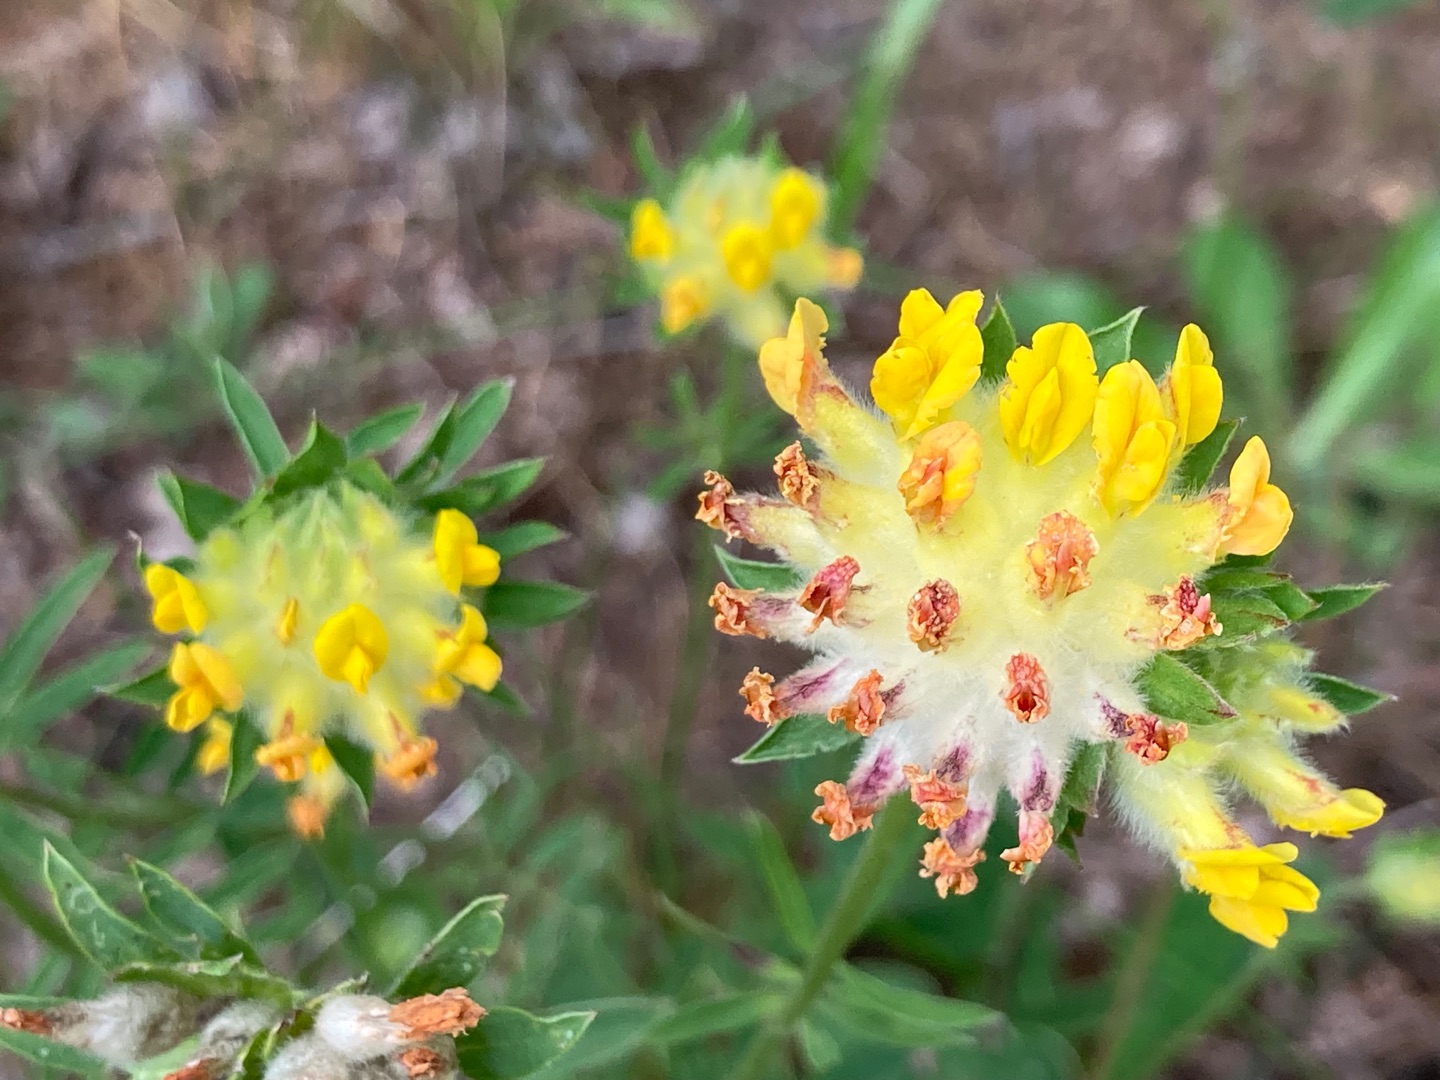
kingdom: Plantae
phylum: Tracheophyta
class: Magnoliopsida
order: Fabales
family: Fabaceae
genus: Anthyllis
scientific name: Anthyllis vulneraria
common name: Rundbælg
